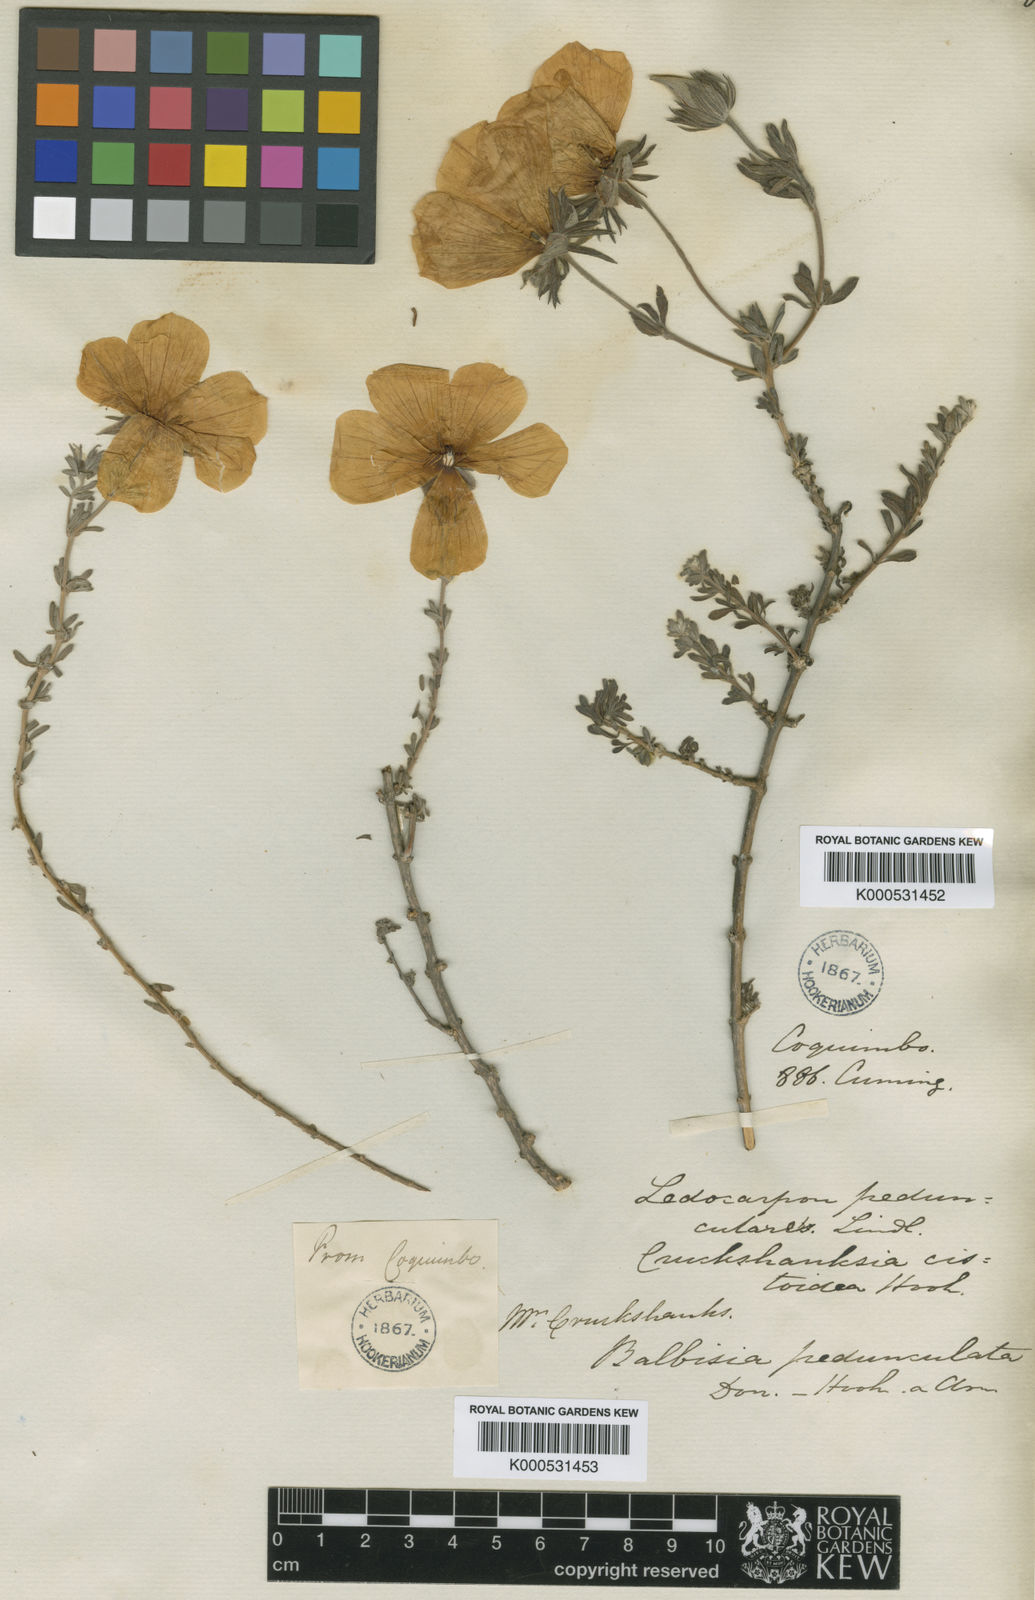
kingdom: Plantae
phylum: Tracheophyta
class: Magnoliopsida
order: Geraniales
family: Vivianiaceae
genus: Balbisia
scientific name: Balbisia peduncularis
